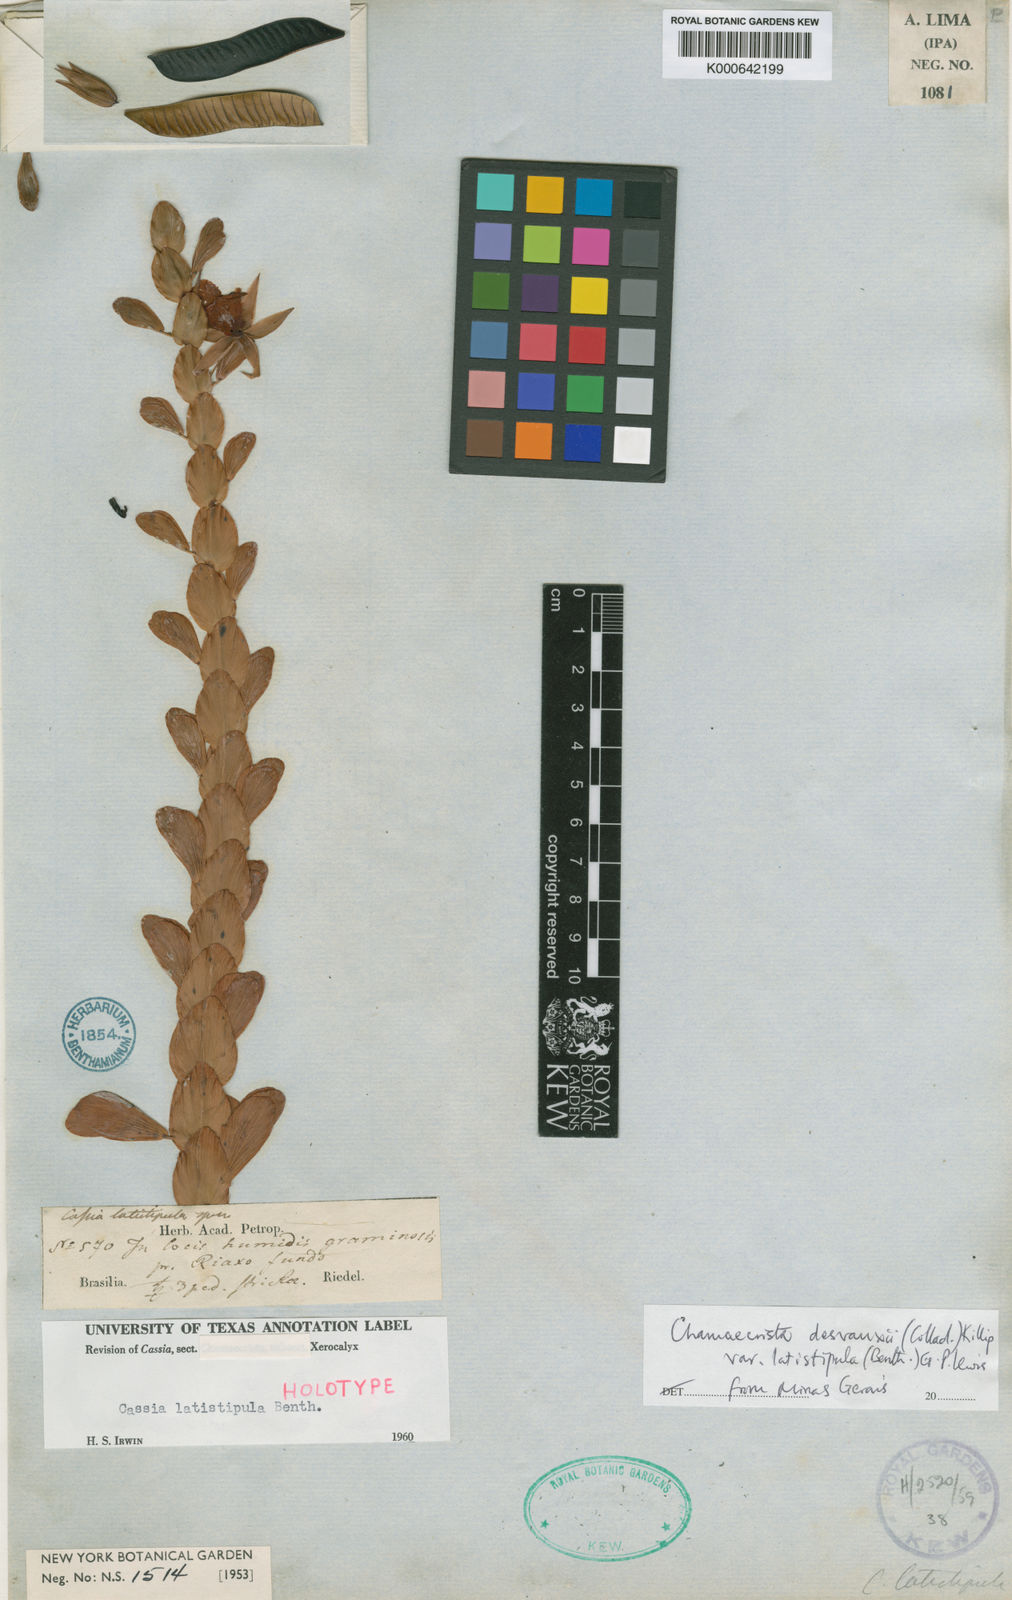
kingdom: Plantae
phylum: Tracheophyta
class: Magnoliopsida
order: Fabales
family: Fabaceae
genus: Chamaecrista
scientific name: Chamaecrista desvauxii
